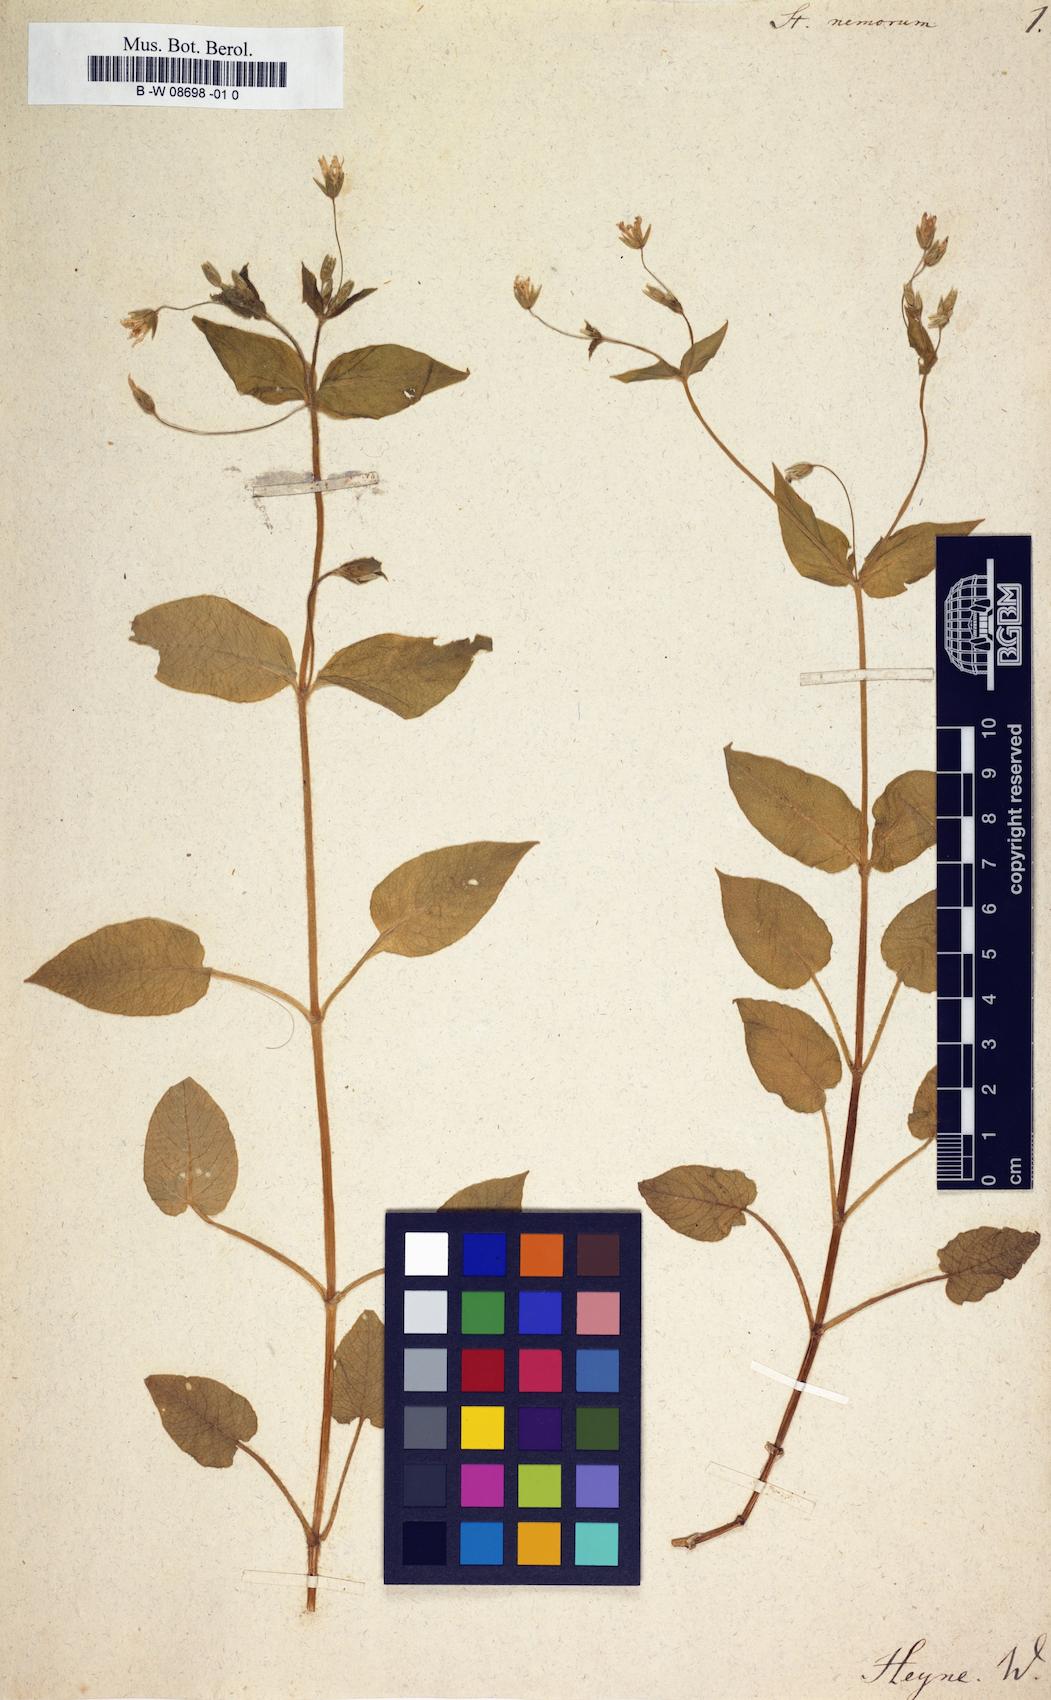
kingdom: Plantae
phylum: Tracheophyta
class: Magnoliopsida
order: Caryophyllales
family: Caryophyllaceae
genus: Stellaria
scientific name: Stellaria nemorum
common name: Wood stitchwort
